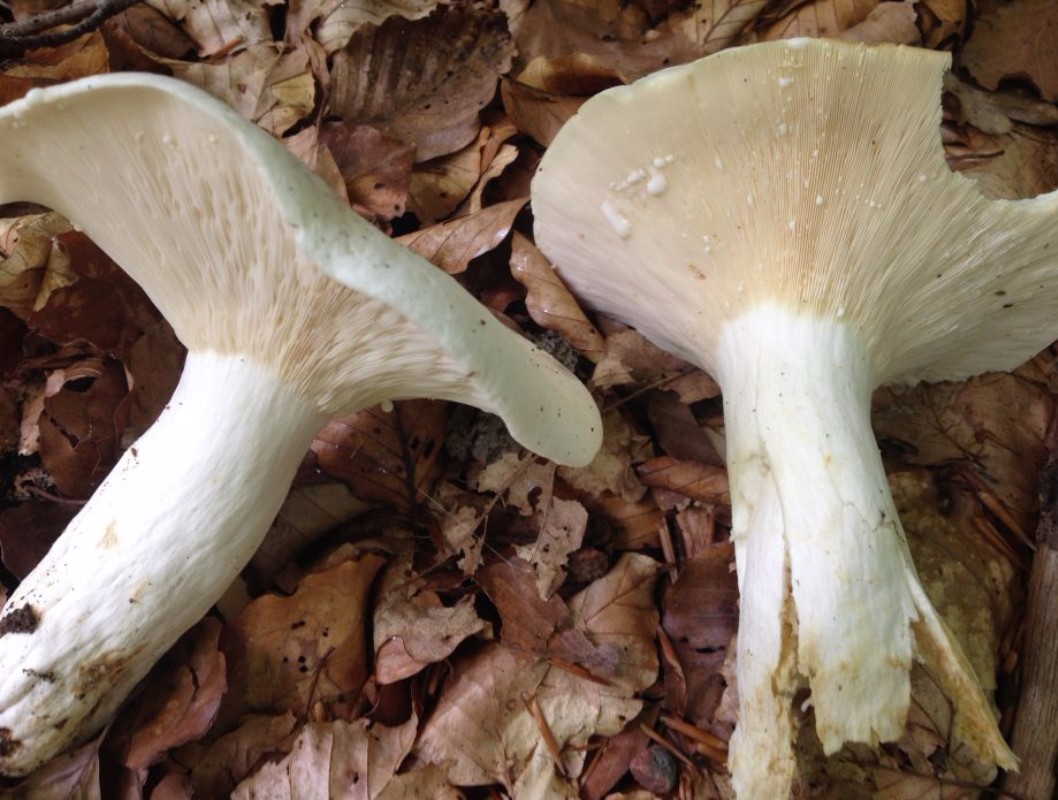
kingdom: Fungi
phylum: Basidiomycota
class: Agaricomycetes
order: Russulales
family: Russulaceae
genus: Lactifluus
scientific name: Lactifluus piperatus
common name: peber-mælkehat
